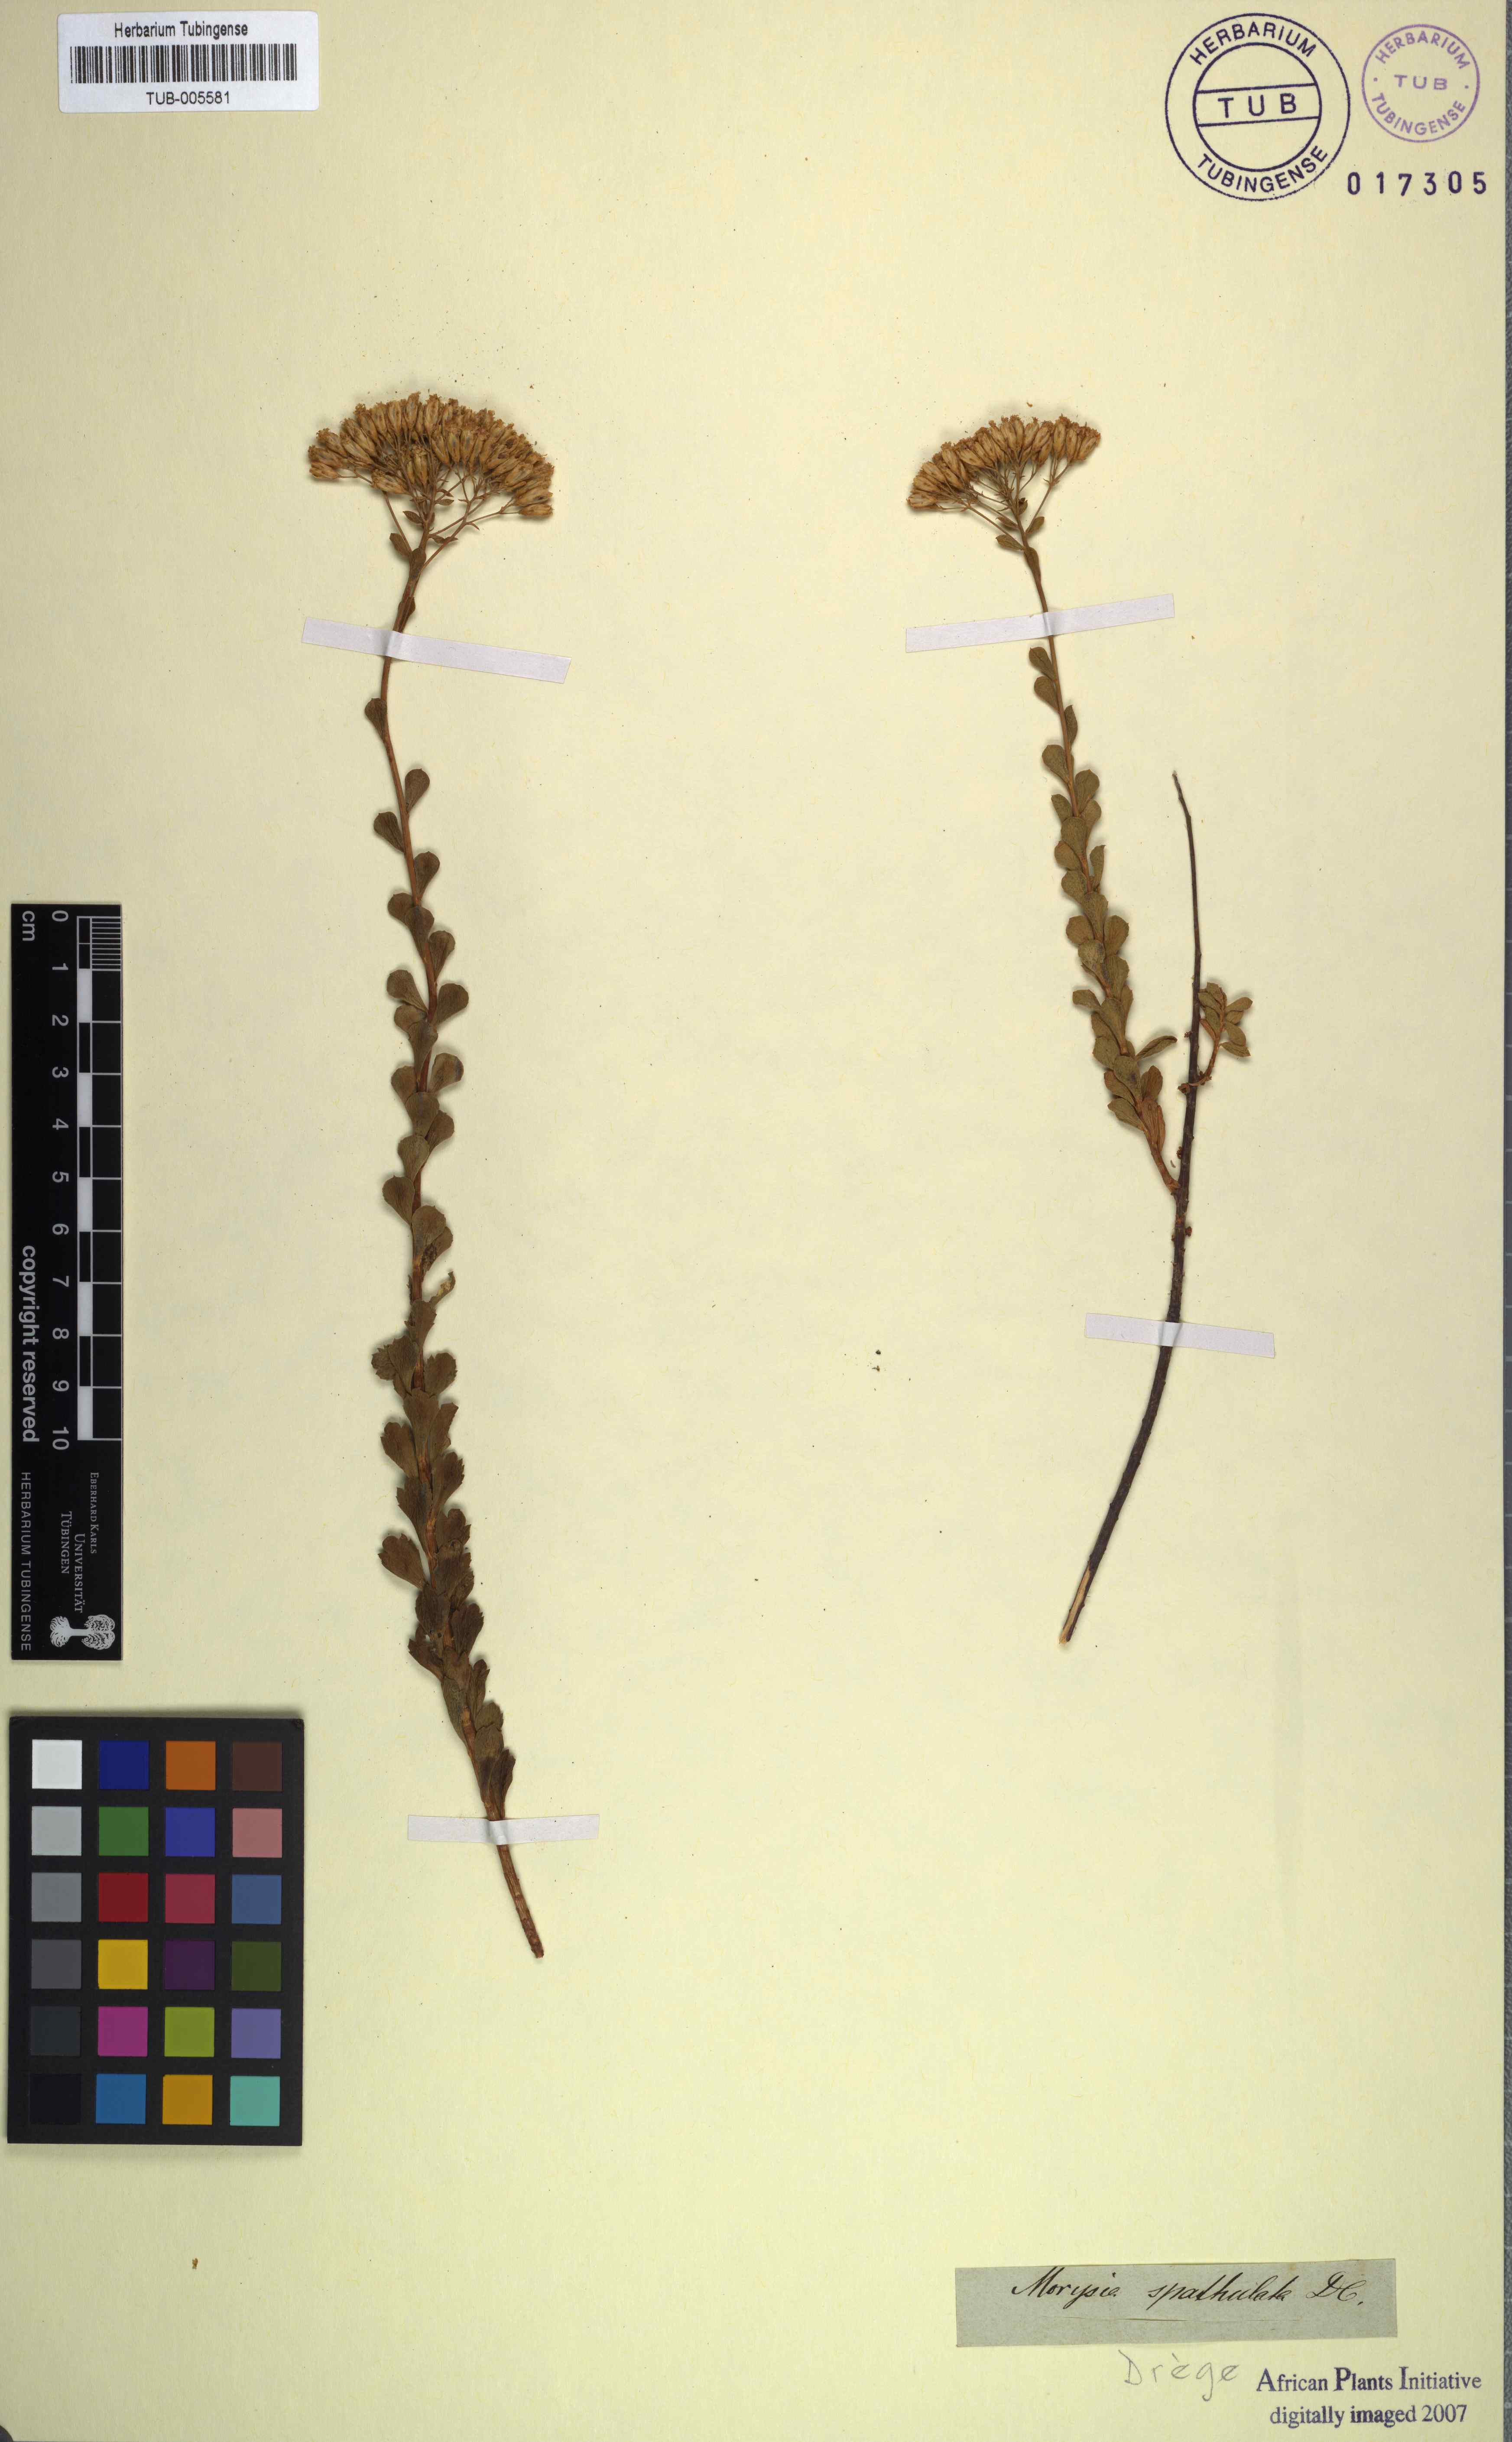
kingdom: Plantae
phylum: Tracheophyta
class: Magnoliopsida
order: Asterales
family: Asteraceae
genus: Athanasia
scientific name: Athanasia spathulata
